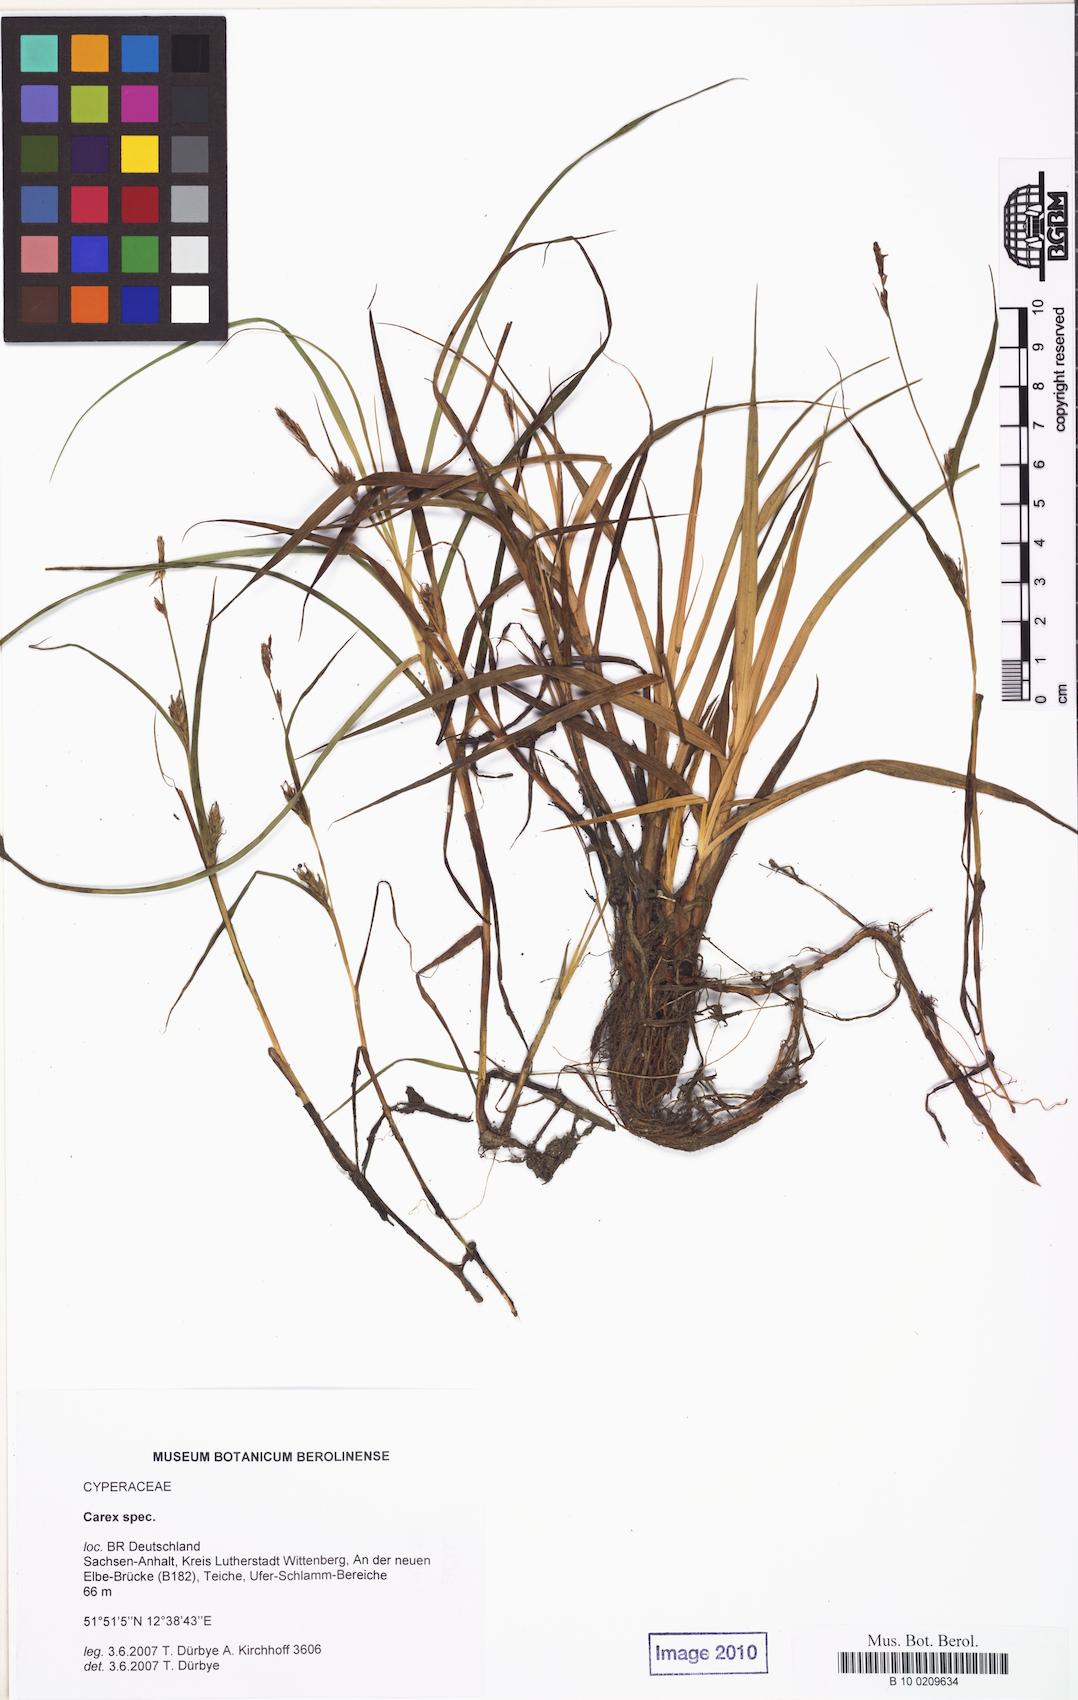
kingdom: Plantae
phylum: Tracheophyta
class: Liliopsida
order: Poales
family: Cyperaceae
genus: Carex
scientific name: Carex hirta
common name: Hairy sedge
